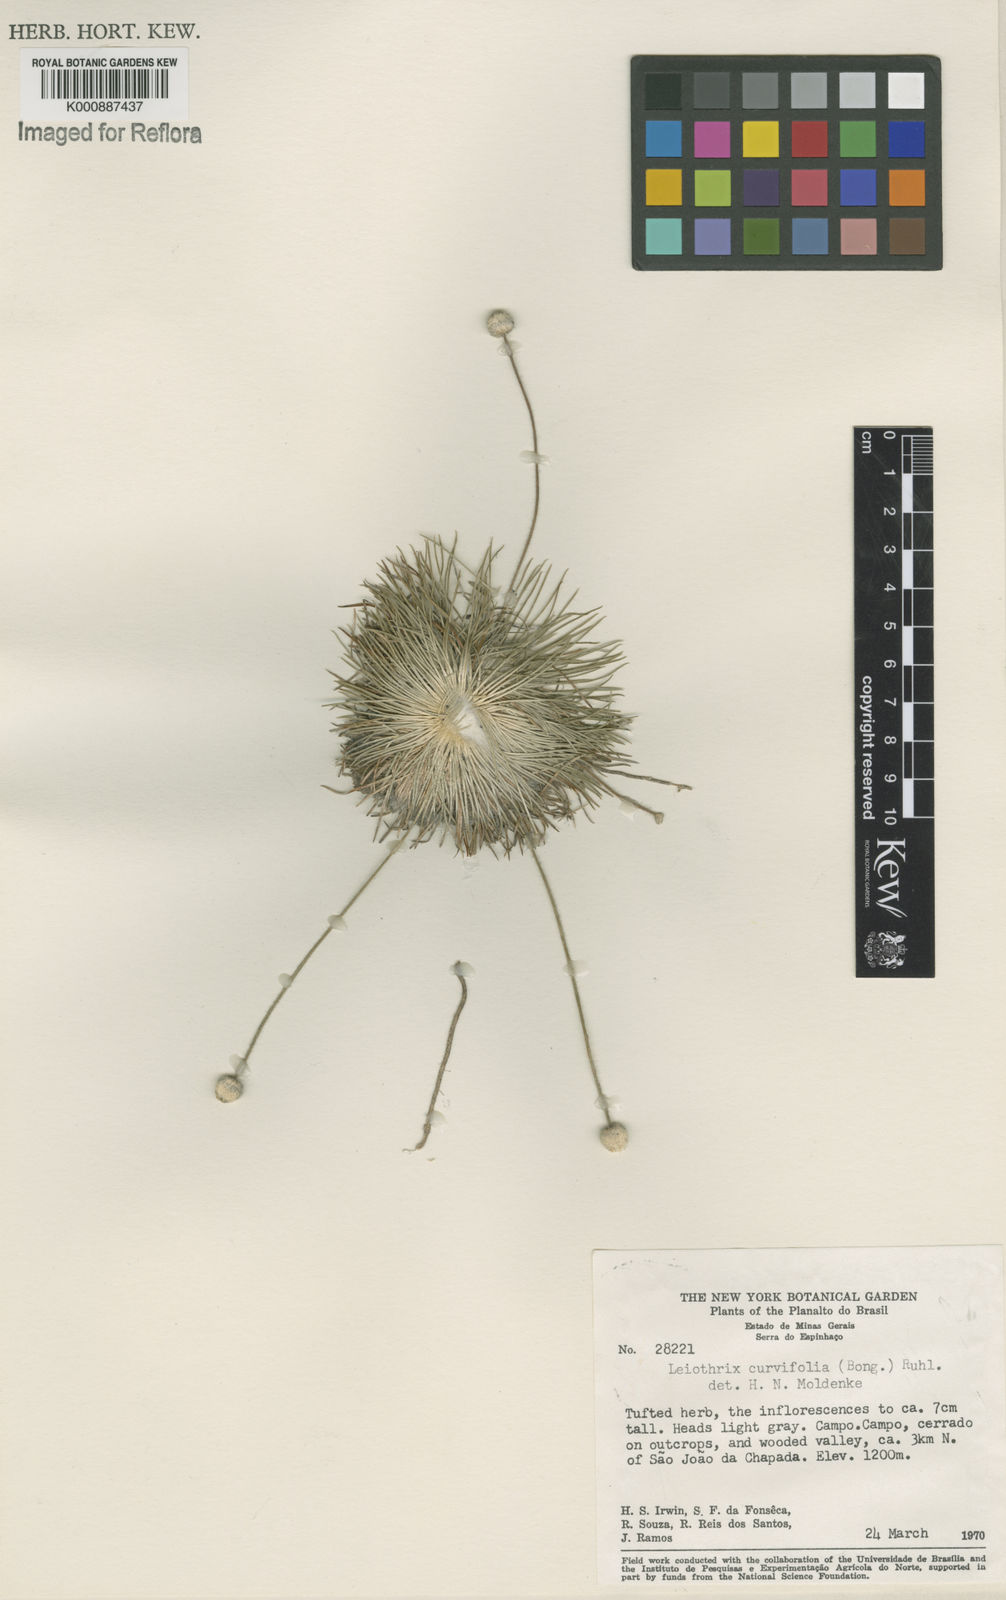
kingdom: Plantae
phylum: Tracheophyta
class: Liliopsida
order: Poales
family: Eriocaulaceae
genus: Leiothrix
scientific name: Leiothrix curvifolia
